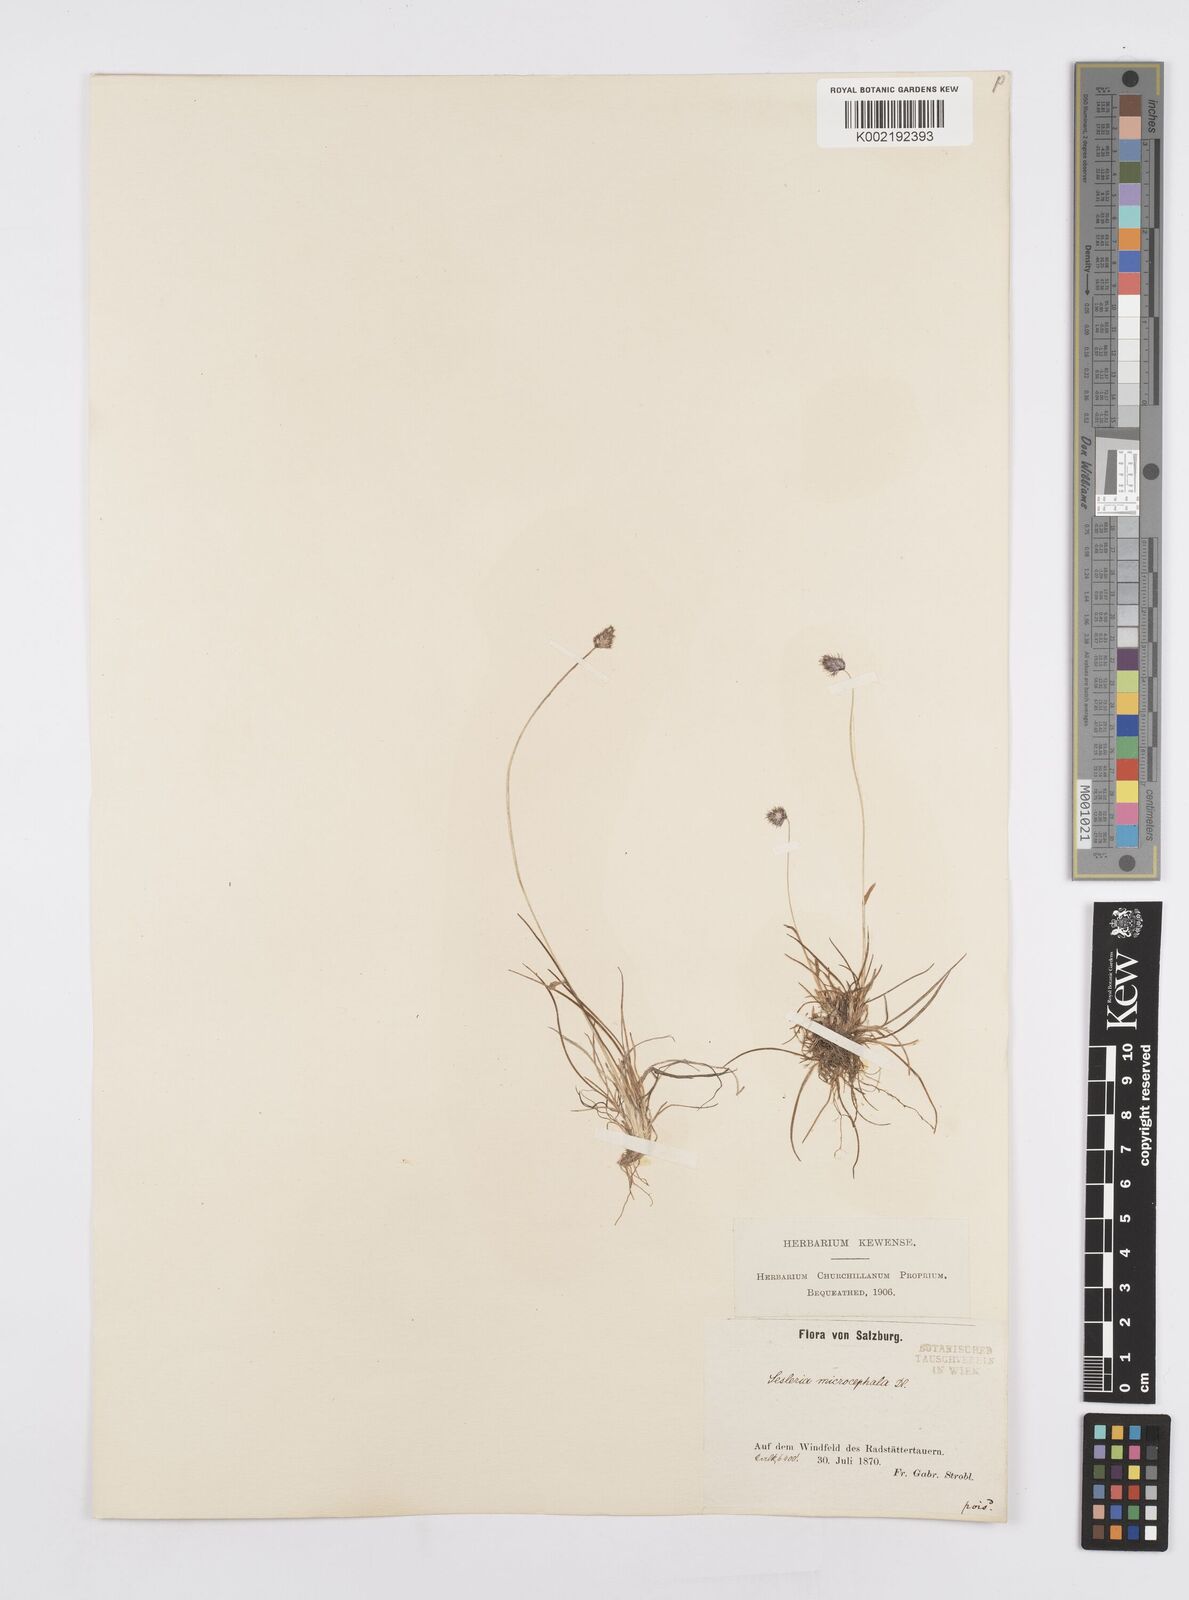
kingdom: Plantae
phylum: Tracheophyta
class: Liliopsida
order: Poales
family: Poaceae
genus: Psilathera
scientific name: Psilathera ovata
